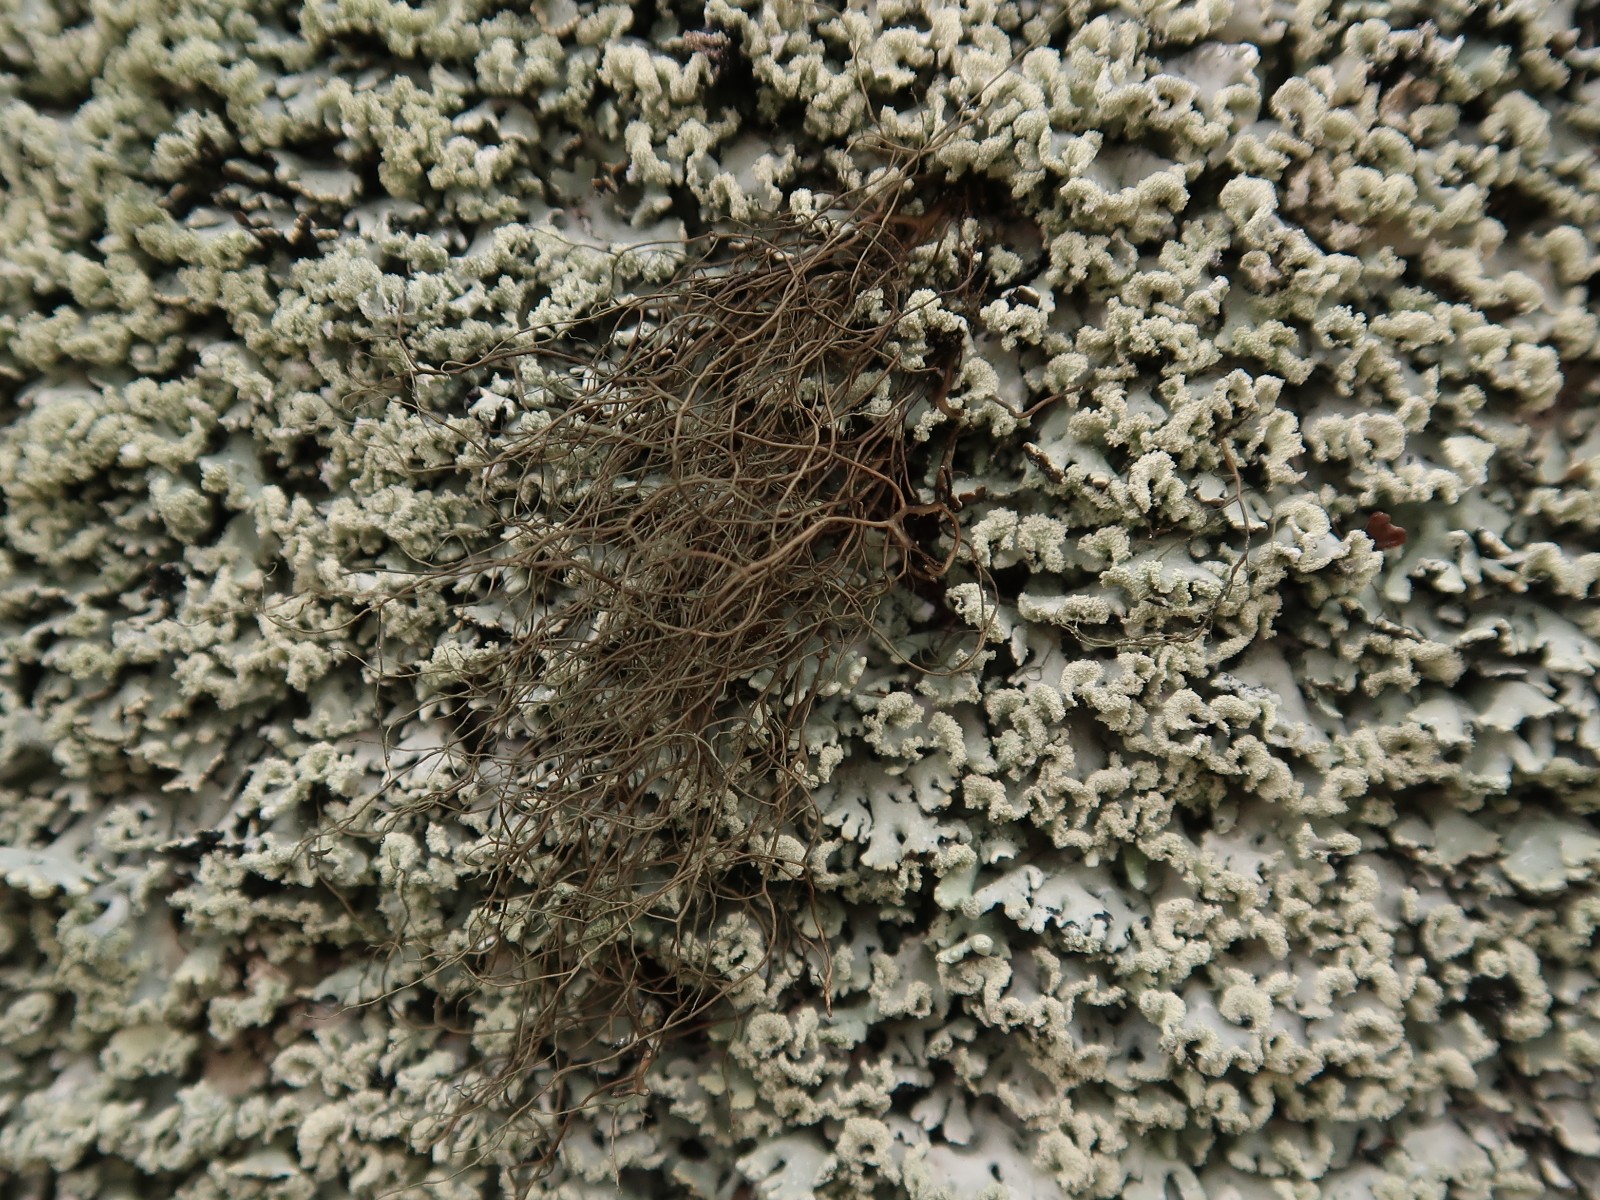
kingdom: Fungi
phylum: Ascomycota
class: Lecanoromycetes
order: Lecanorales
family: Parmeliaceae
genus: Bryoria
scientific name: Bryoria fuscescens
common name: almindelig mankelav
